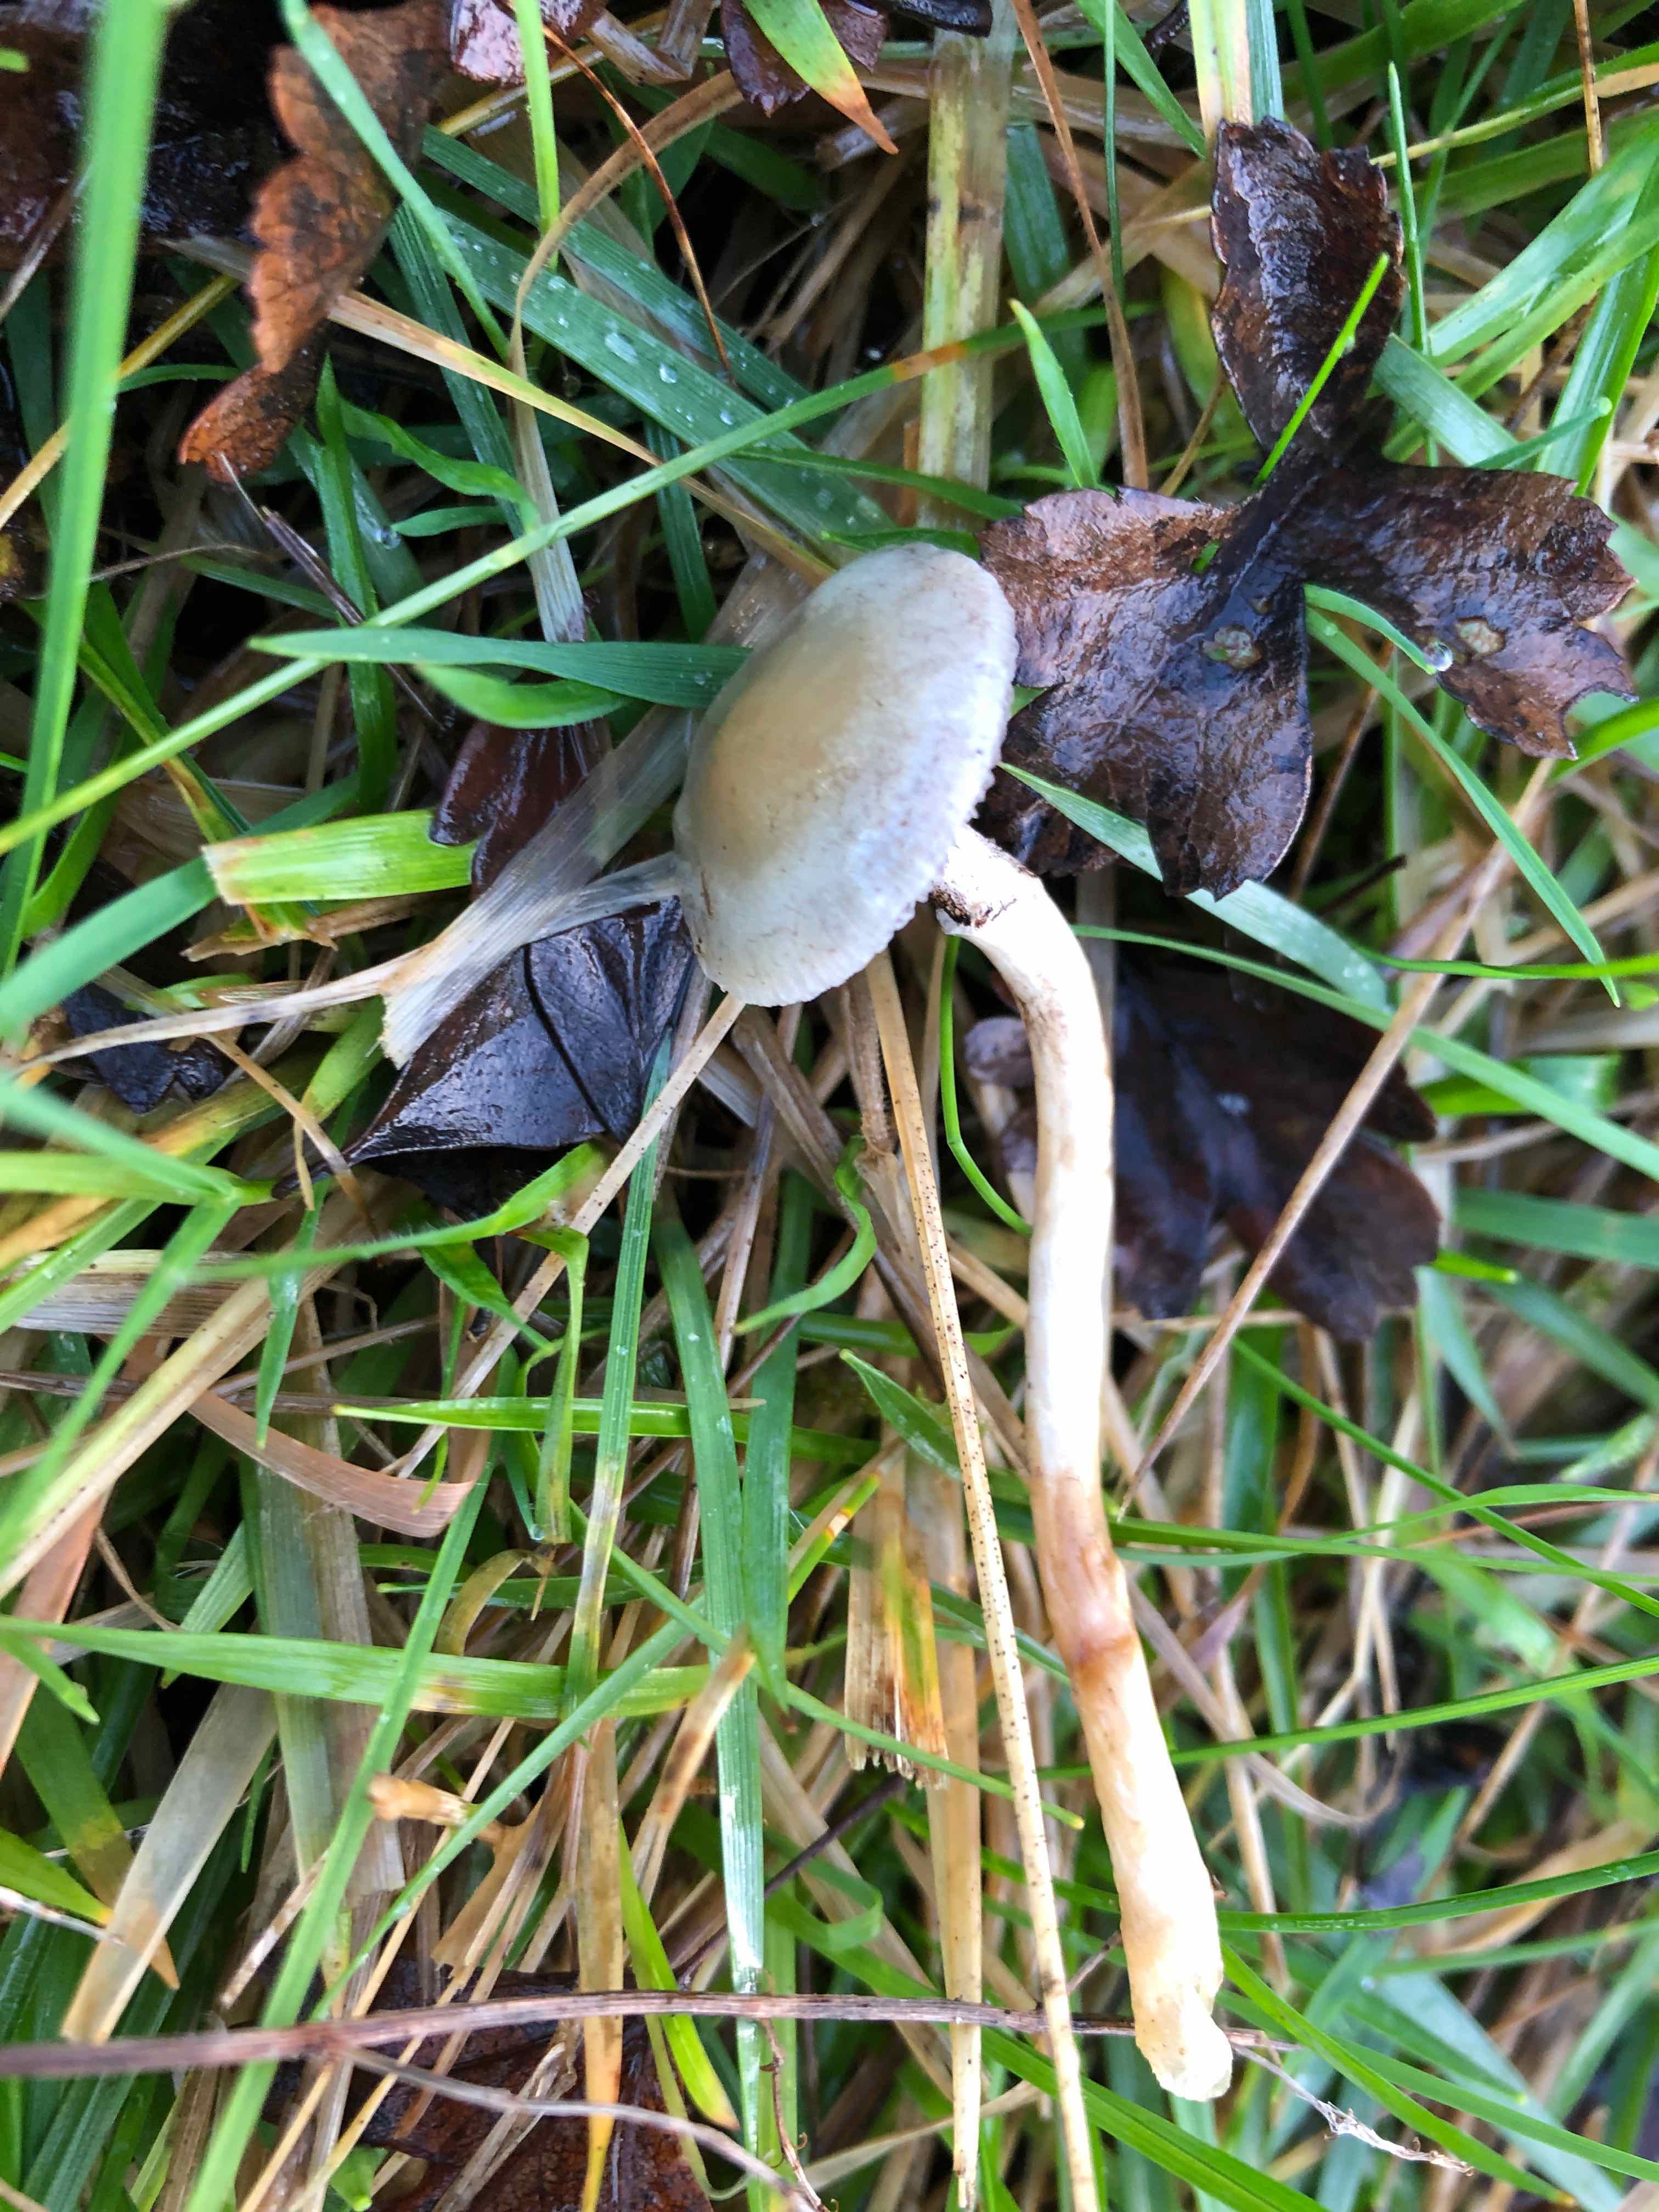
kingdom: Fungi
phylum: Basidiomycota
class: Agaricomycetes
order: Agaricales
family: Strophariaceae
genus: Stropharia
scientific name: Stropharia inuncta
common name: lillabrun bredblad
